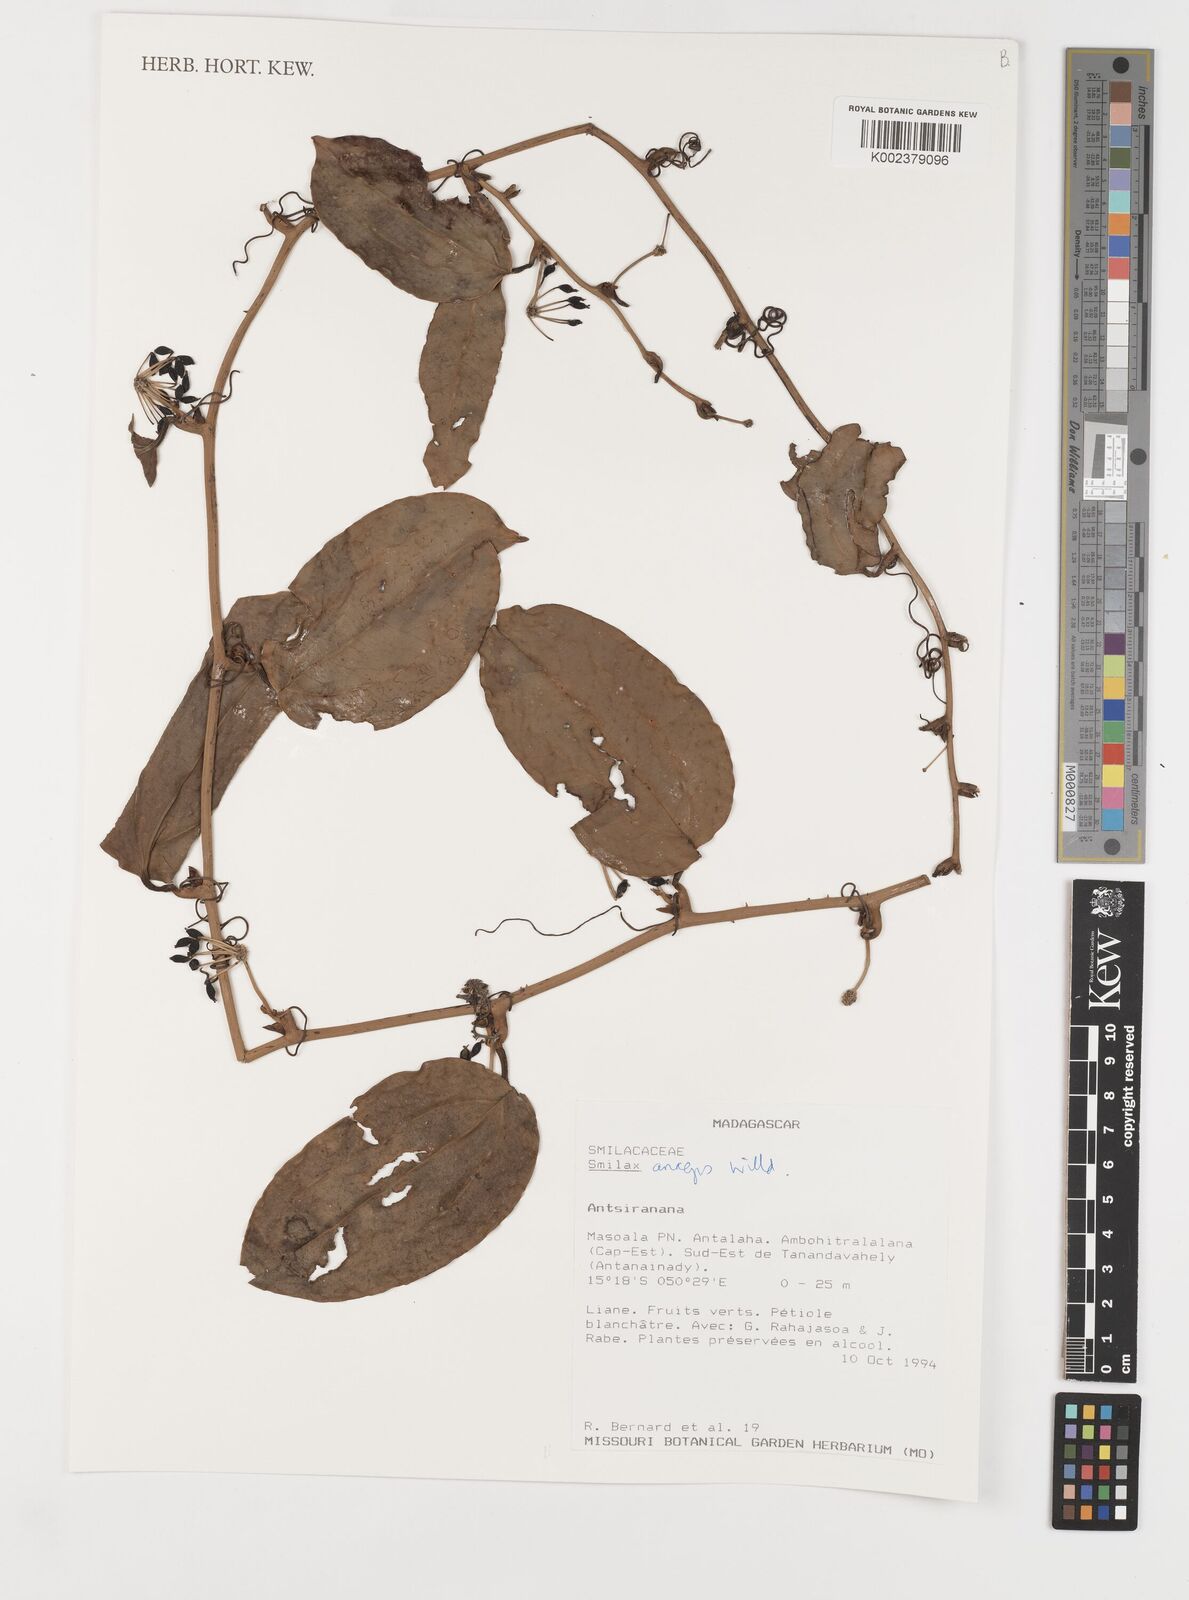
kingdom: Plantae
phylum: Tracheophyta
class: Liliopsida
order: Liliales
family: Smilacaceae
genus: Smilax
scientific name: Smilax anceps
